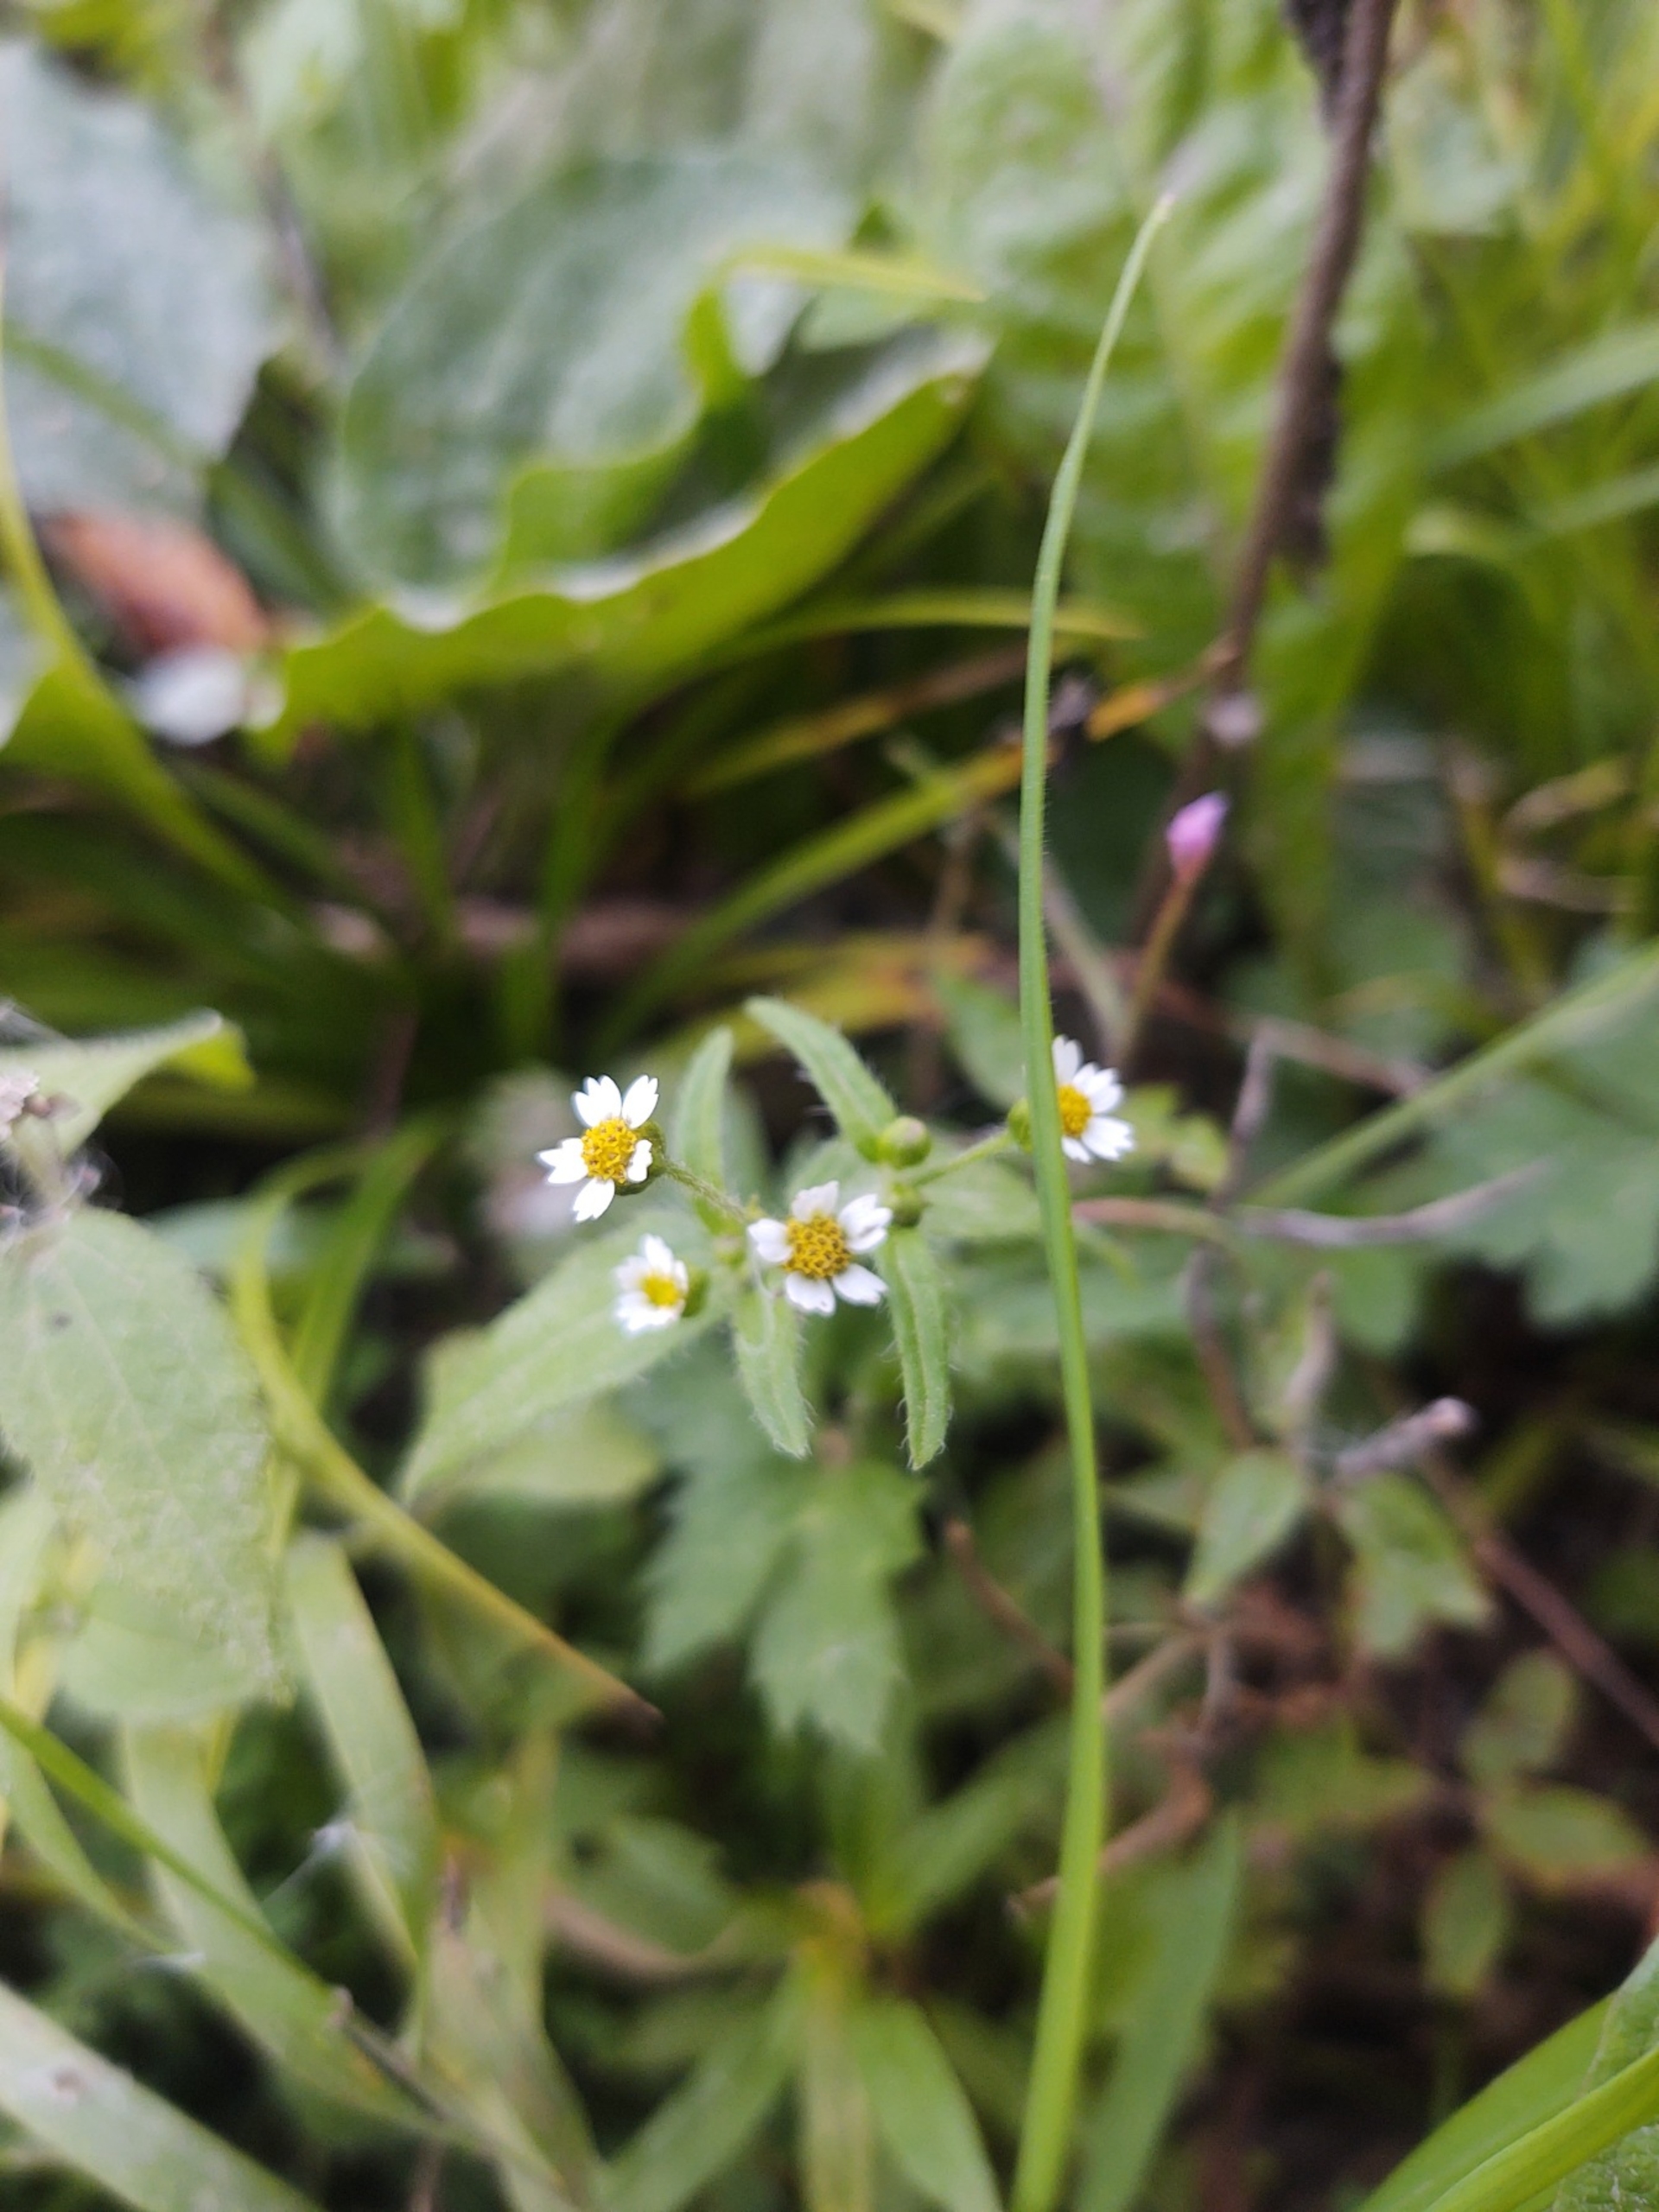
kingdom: Plantae
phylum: Tracheophyta
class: Magnoliopsida
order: Asterales
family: Asteraceae
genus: Galinsoga
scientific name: Galinsoga quadriradiata
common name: Kirtel-kortstråle
